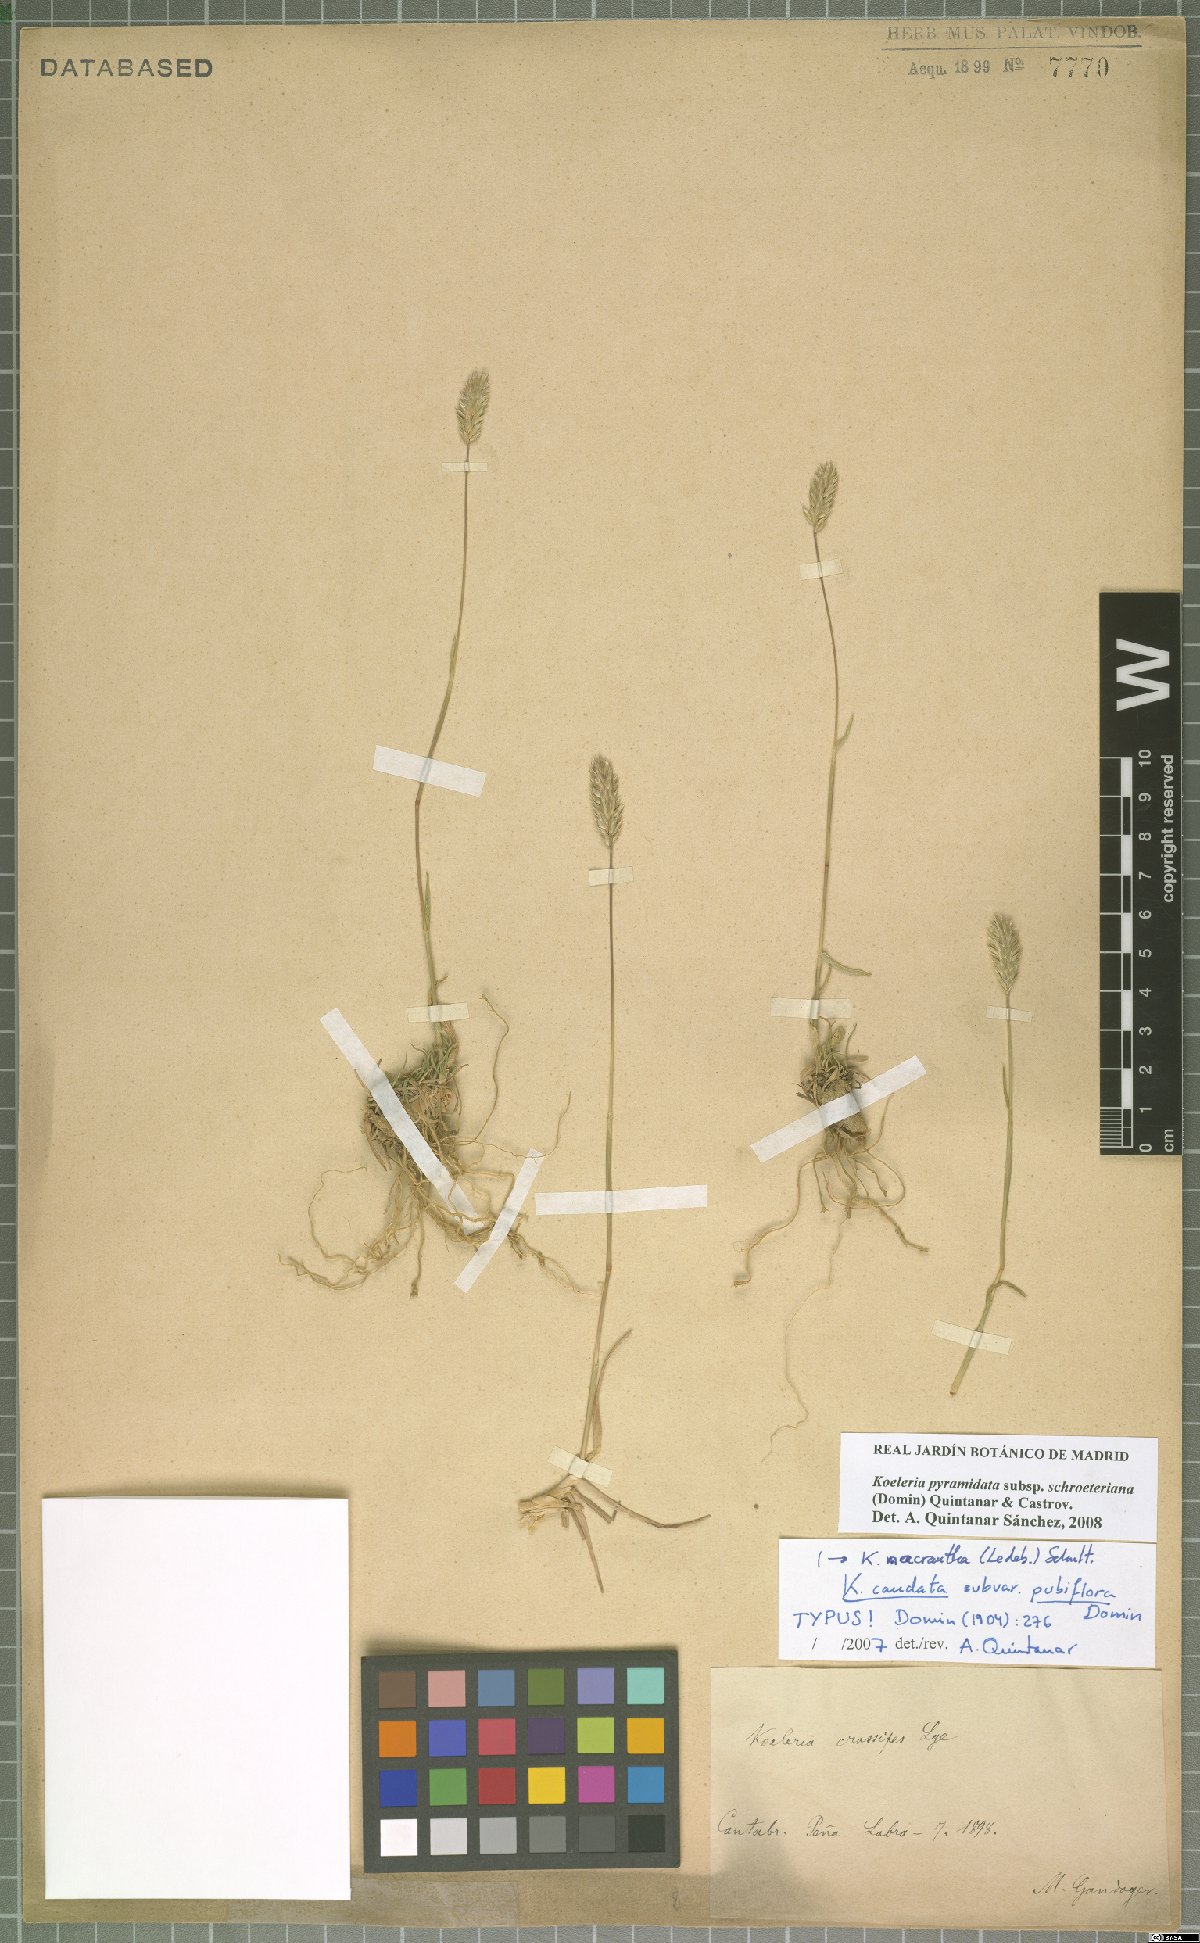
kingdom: Plantae
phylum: Tracheophyta
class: Liliopsida
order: Poales
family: Poaceae
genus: Koeleria
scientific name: Koeleria pyramidata
